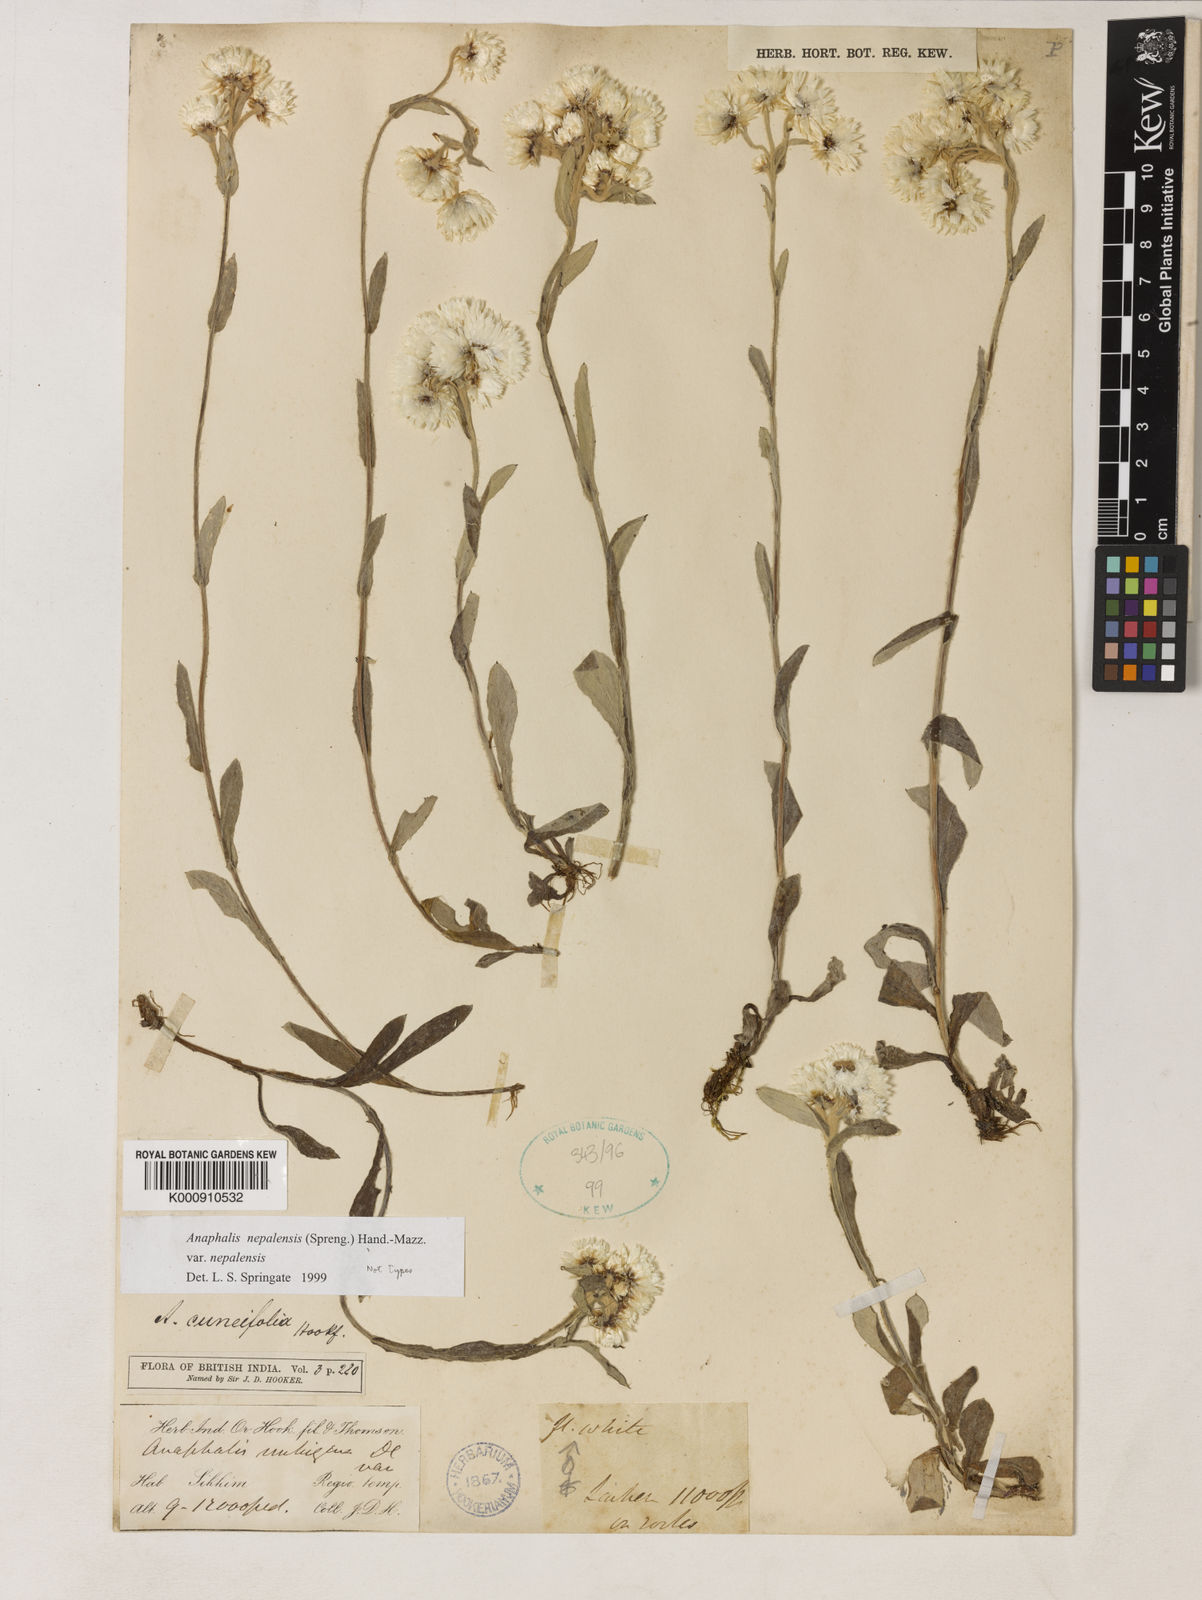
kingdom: Plantae
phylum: Tracheophyta
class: Magnoliopsida
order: Asterales
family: Asteraceae
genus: Anaphalis
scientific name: Anaphalis nepalensis
